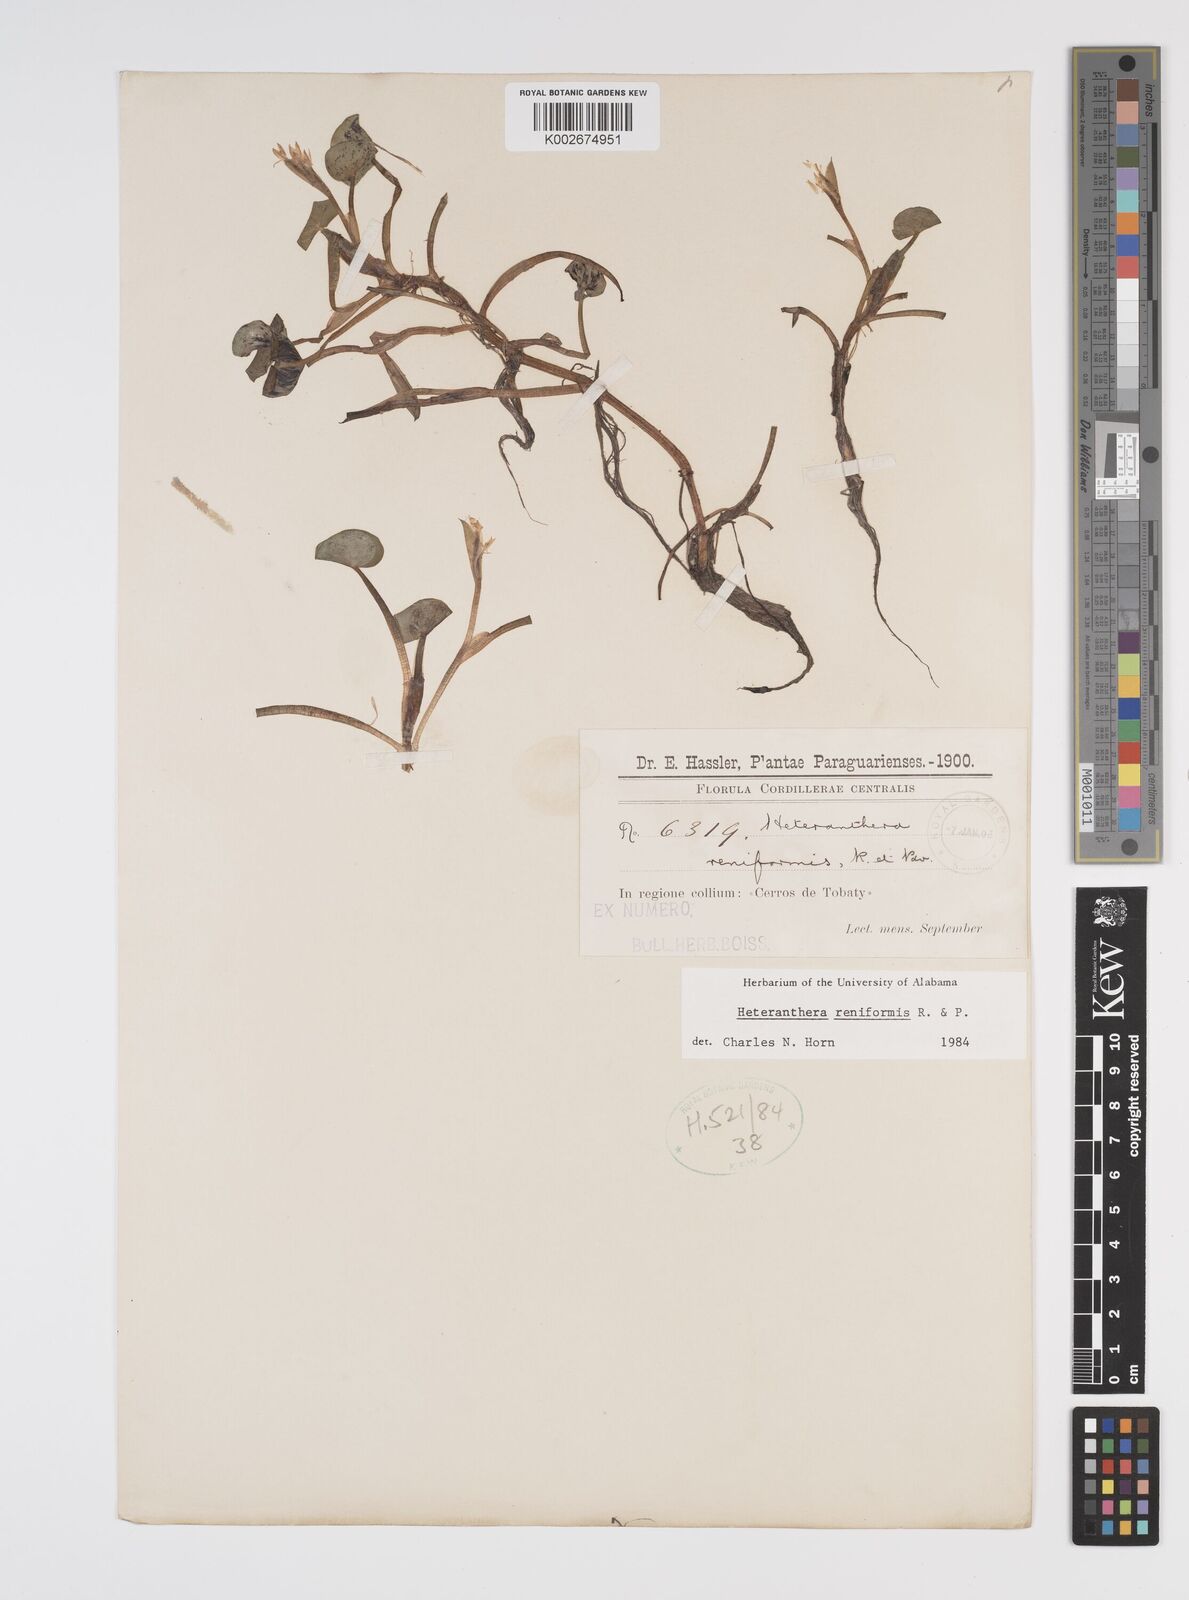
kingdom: Plantae
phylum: Tracheophyta
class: Liliopsida
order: Commelinales
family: Pontederiaceae
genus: Heteranthera
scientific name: Heteranthera reniformis
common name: Kidneyleaf mudplantain
